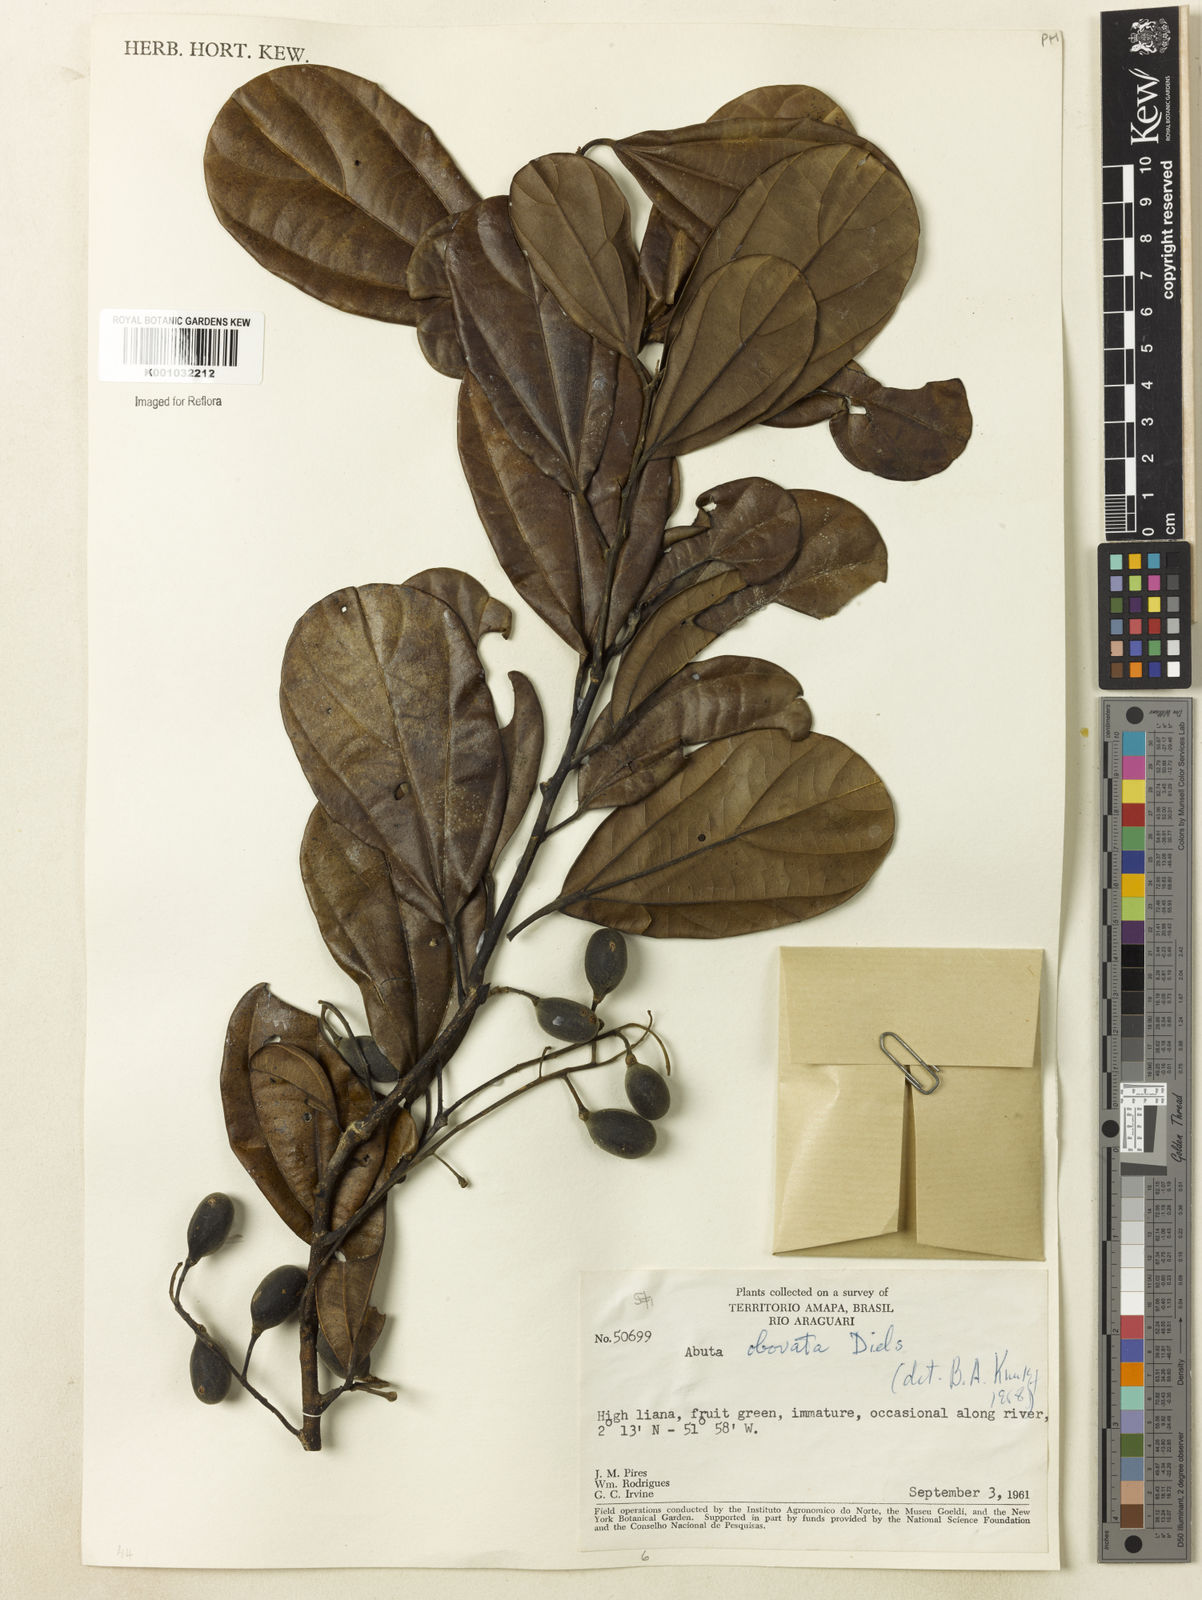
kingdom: Plantae
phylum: Tracheophyta
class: Magnoliopsida
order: Ranunculales
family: Menispermaceae
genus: Abuta
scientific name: Abuta obovata
